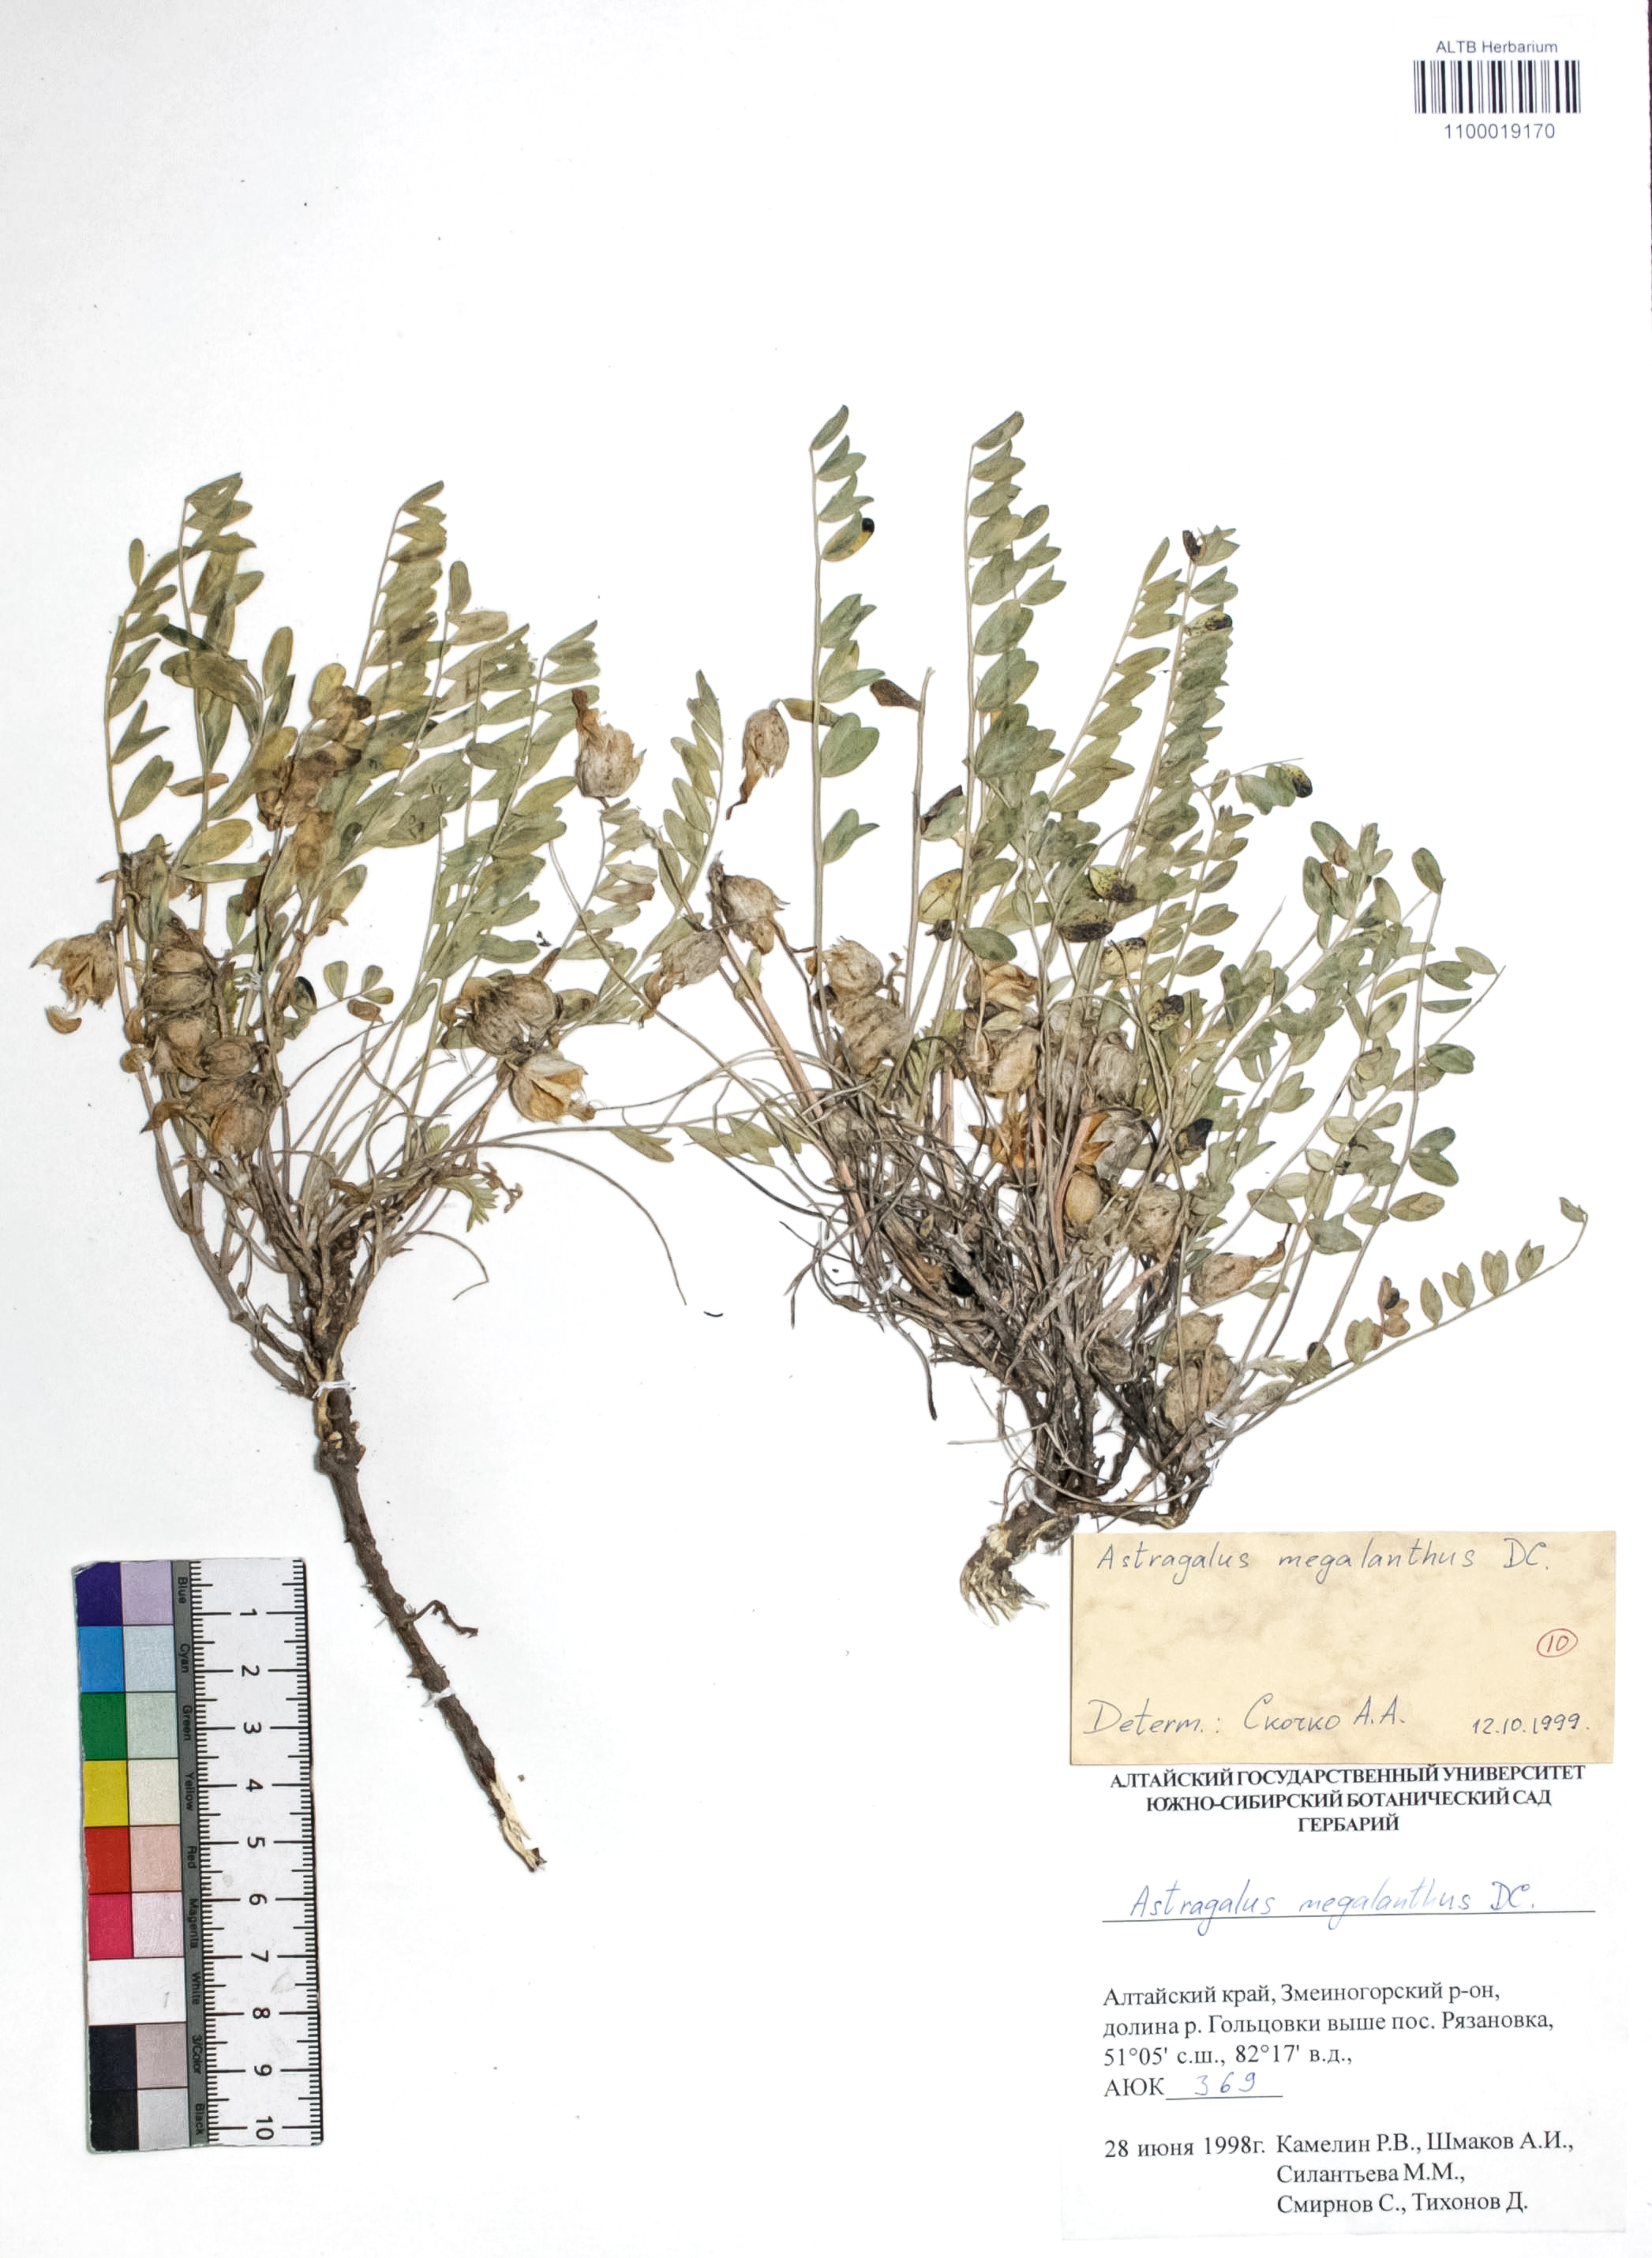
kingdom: Plantae
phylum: Tracheophyta
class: Magnoliopsida
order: Fabales
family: Fabaceae
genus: Astragalus
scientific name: Astragalus leptostachys
